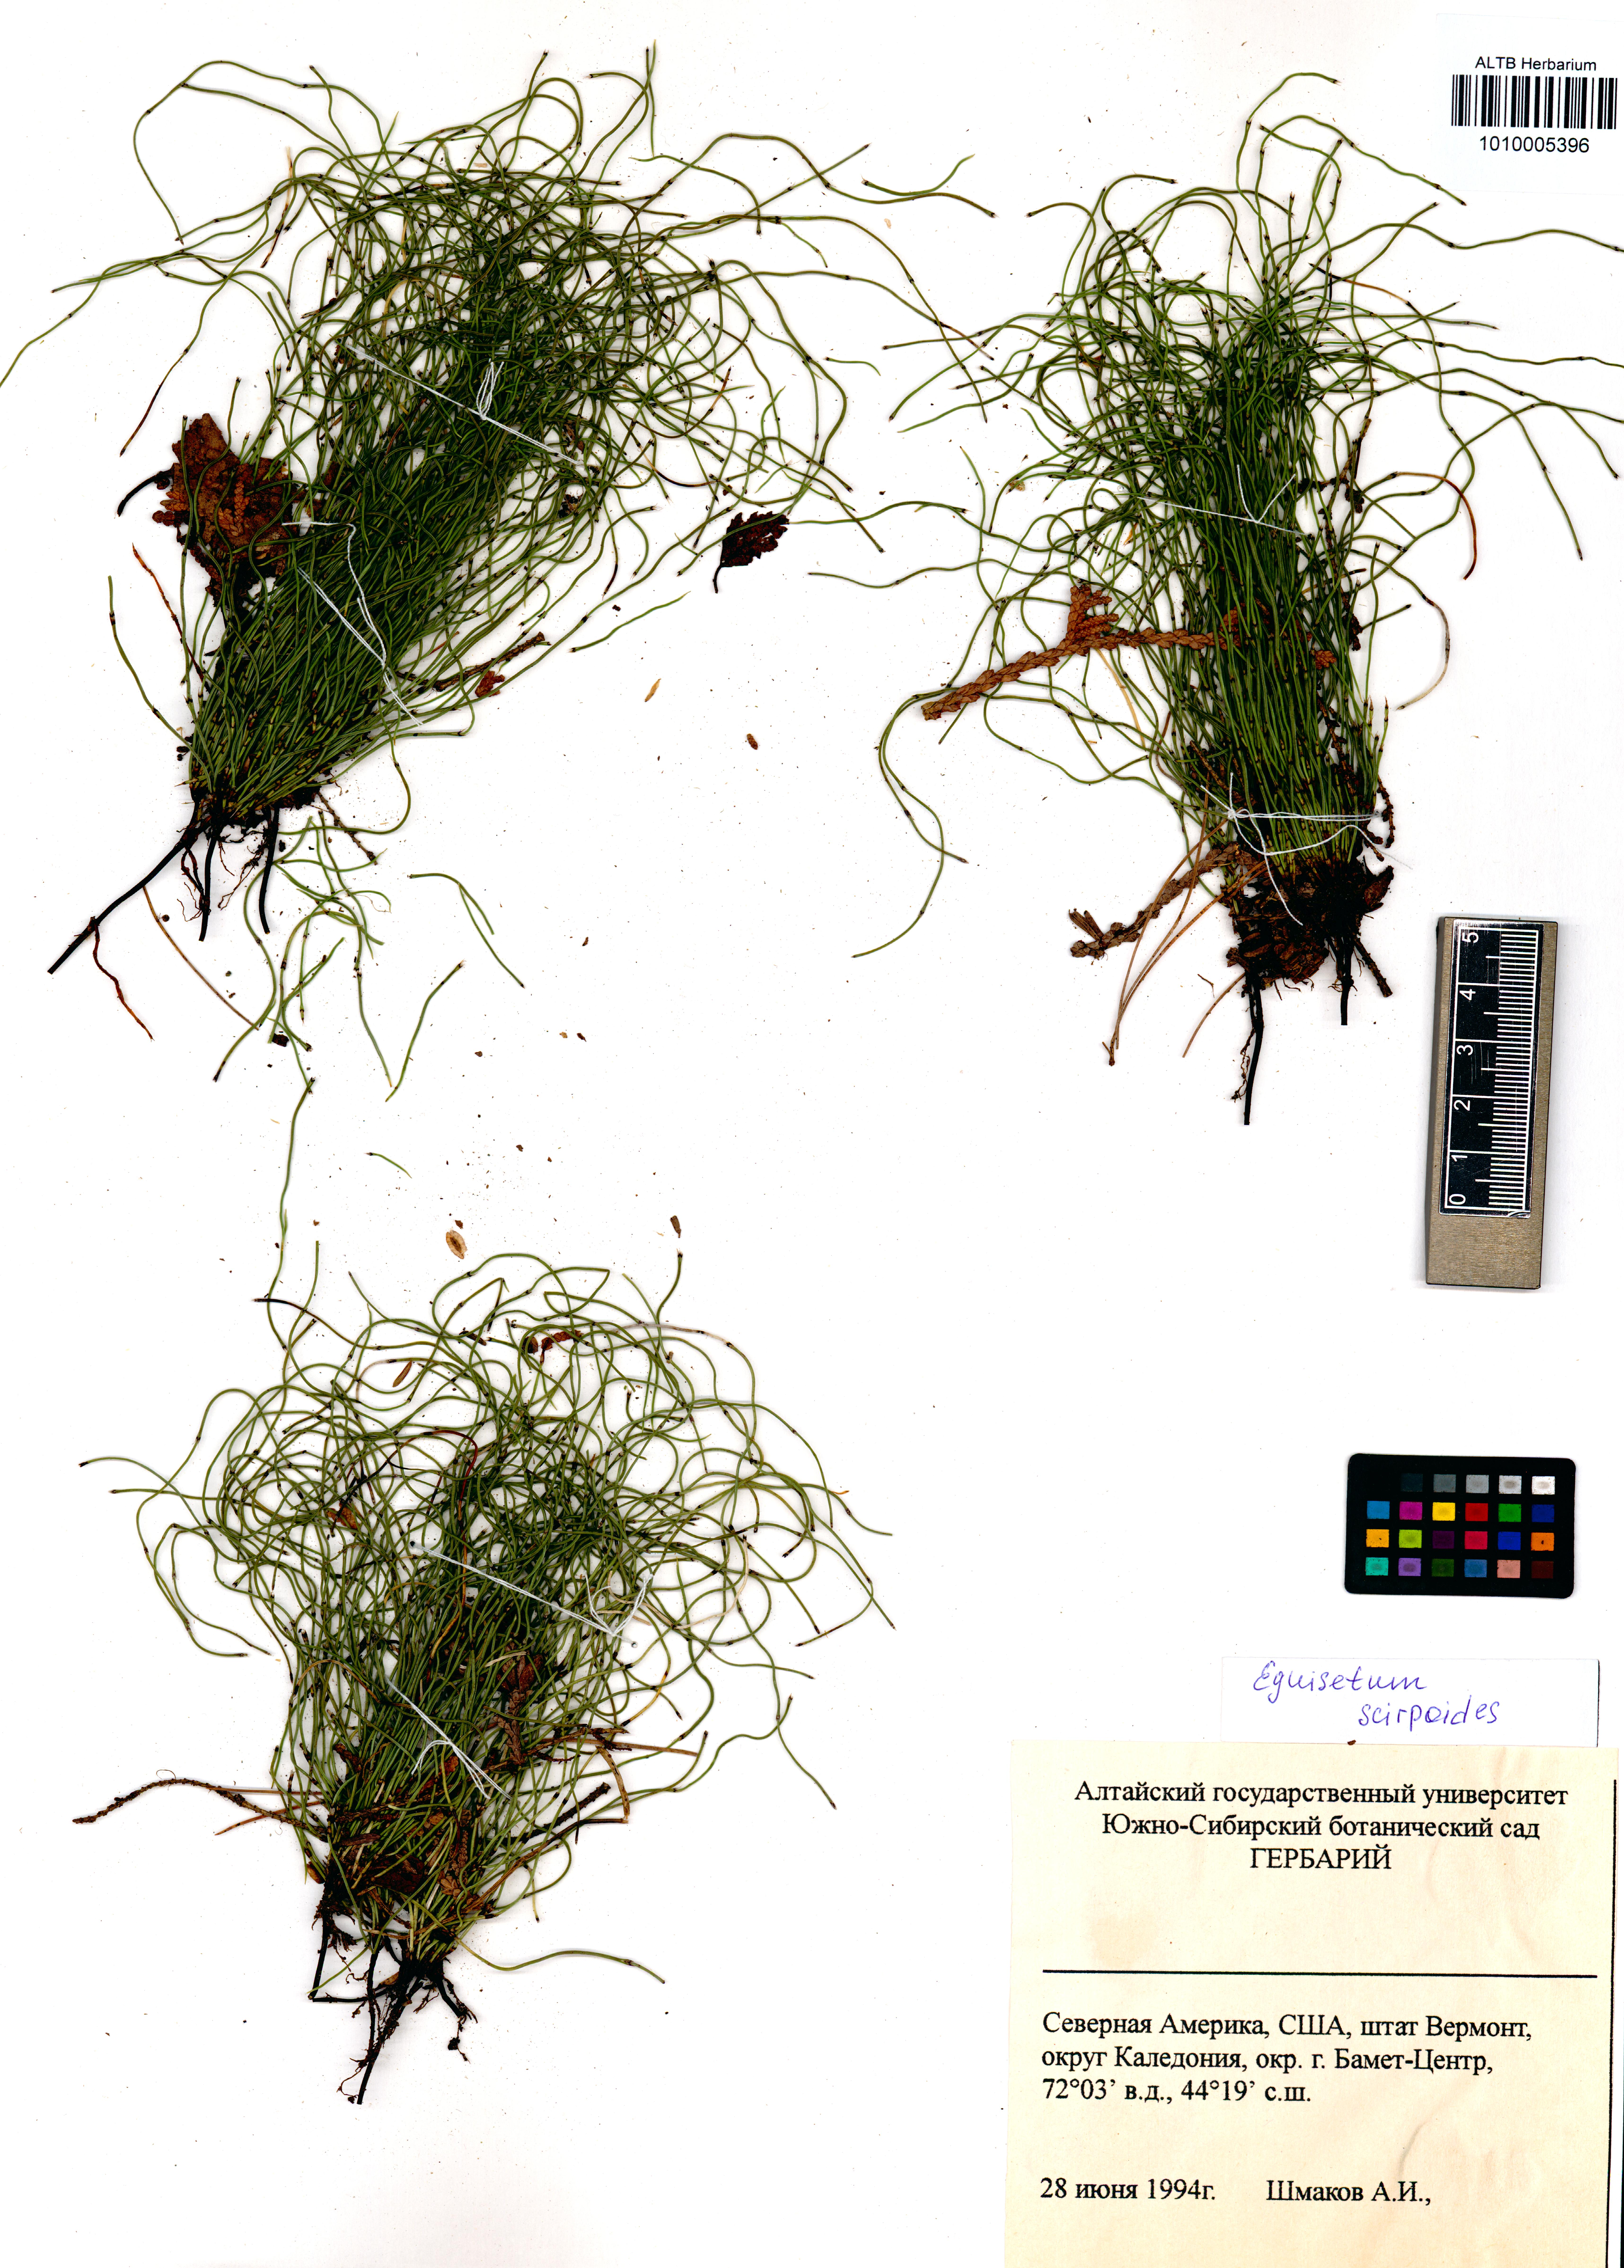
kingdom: Plantae
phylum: Tracheophyta
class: Polypodiopsida
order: Equisetales
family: Equisetaceae
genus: Equisetum
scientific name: Equisetum scirpoides
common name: Delicate horsetail
